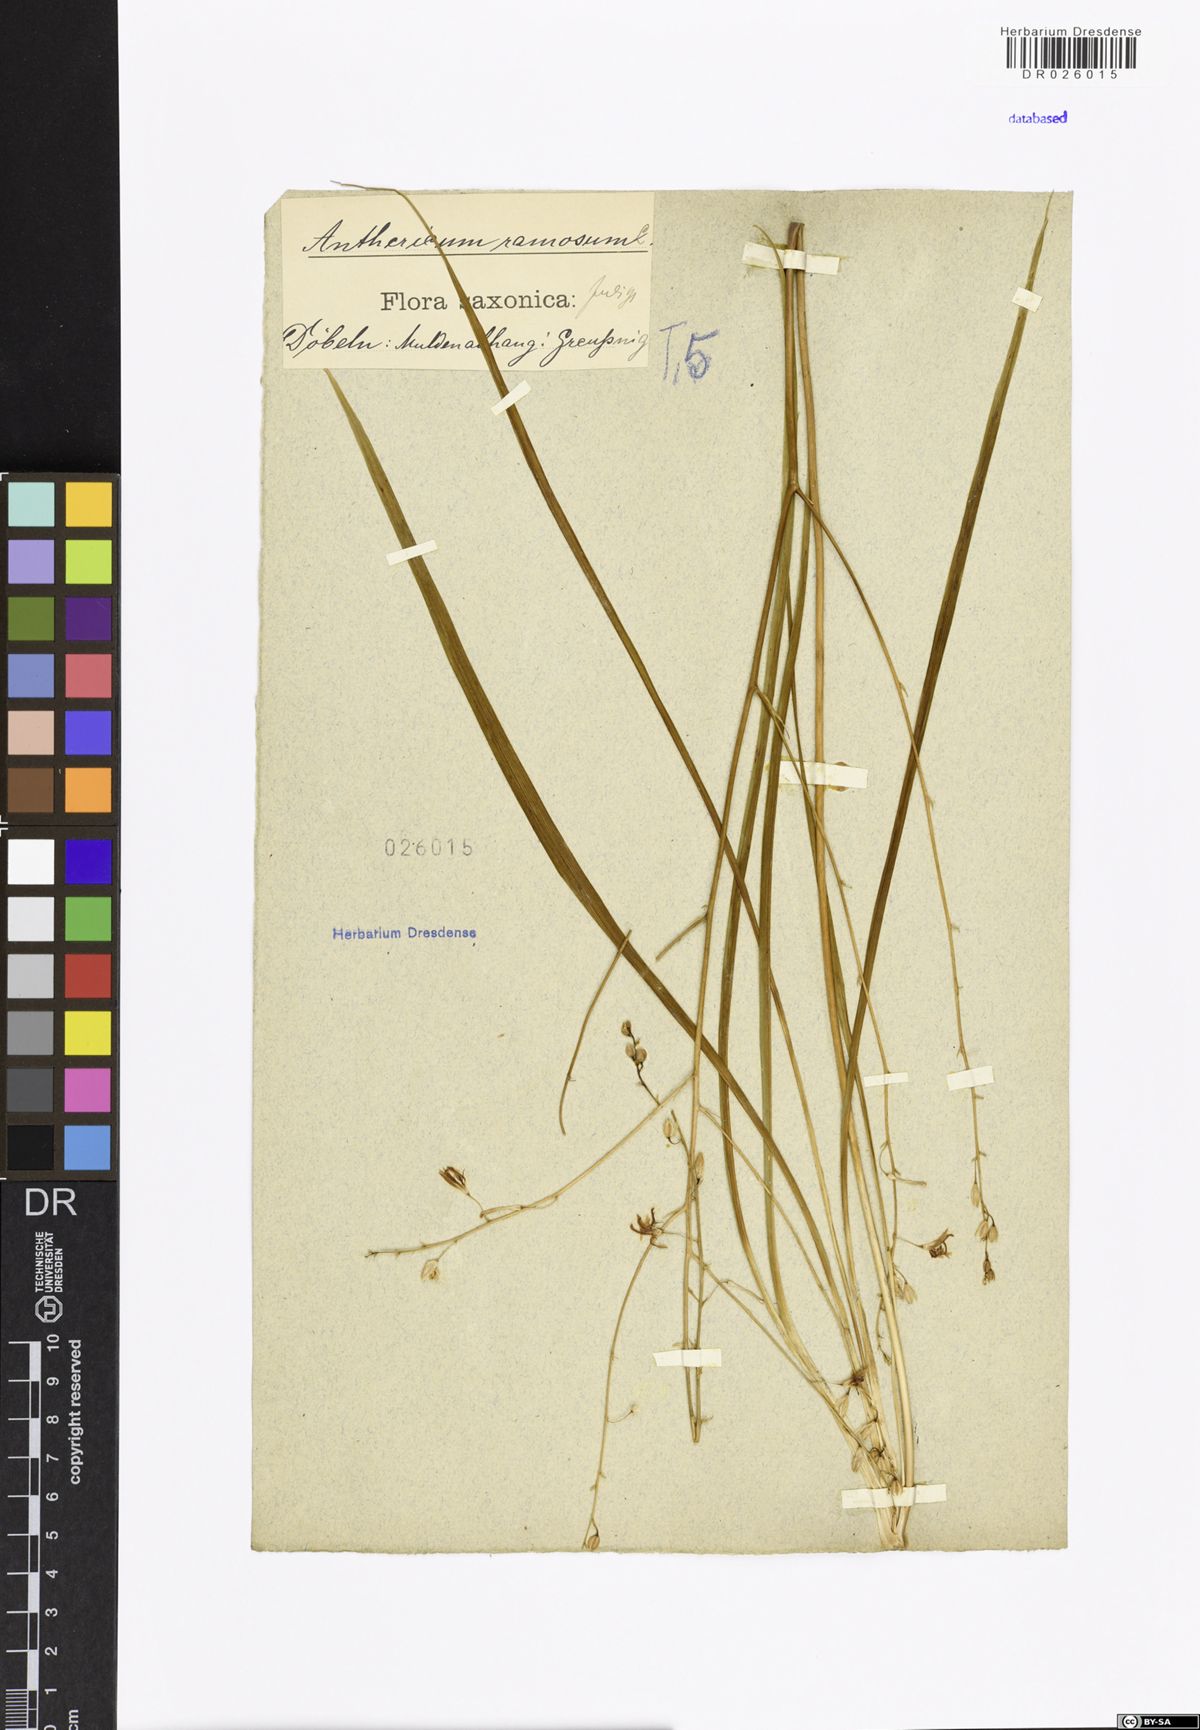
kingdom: Plantae
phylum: Tracheophyta
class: Liliopsida
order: Asparagales
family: Asparagaceae
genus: Anthericum
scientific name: Anthericum ramosum
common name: Branched st. bernard's-lily
